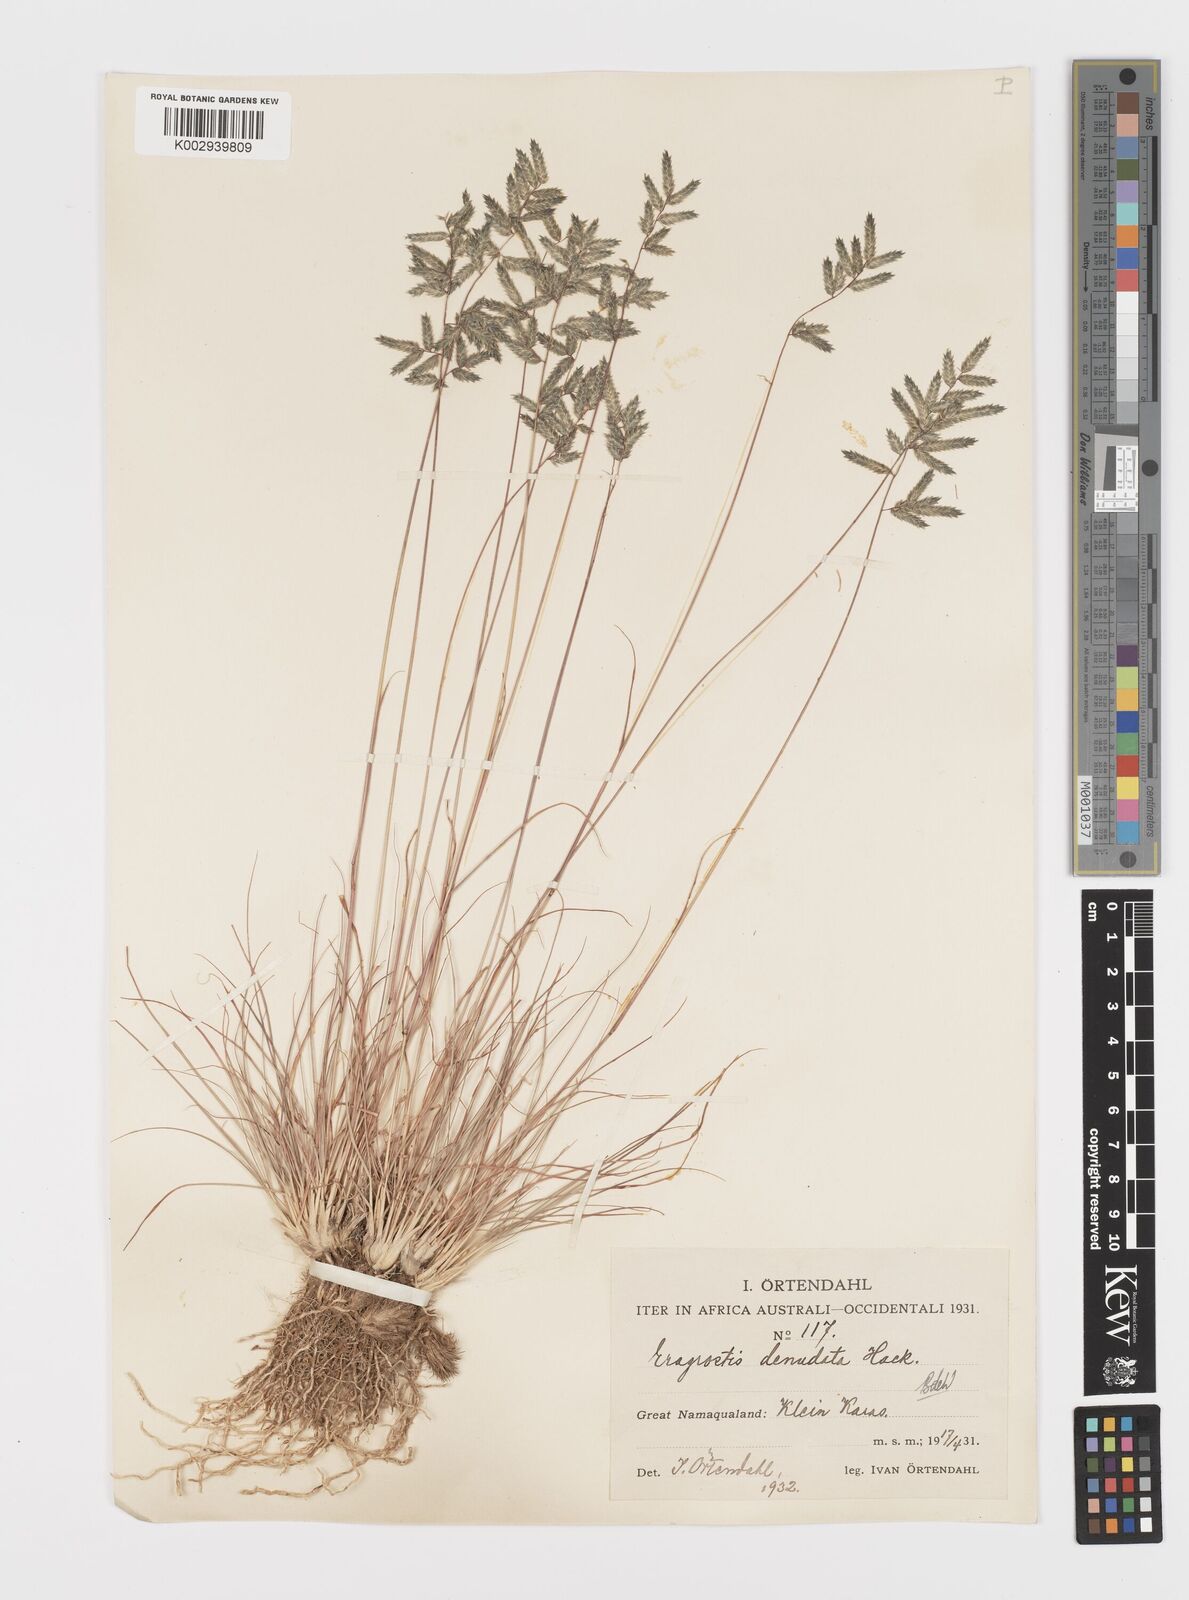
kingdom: Plantae
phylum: Tracheophyta
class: Liliopsida
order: Poales
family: Poaceae
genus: Eragrostis
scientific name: Eragrostis nindensis
